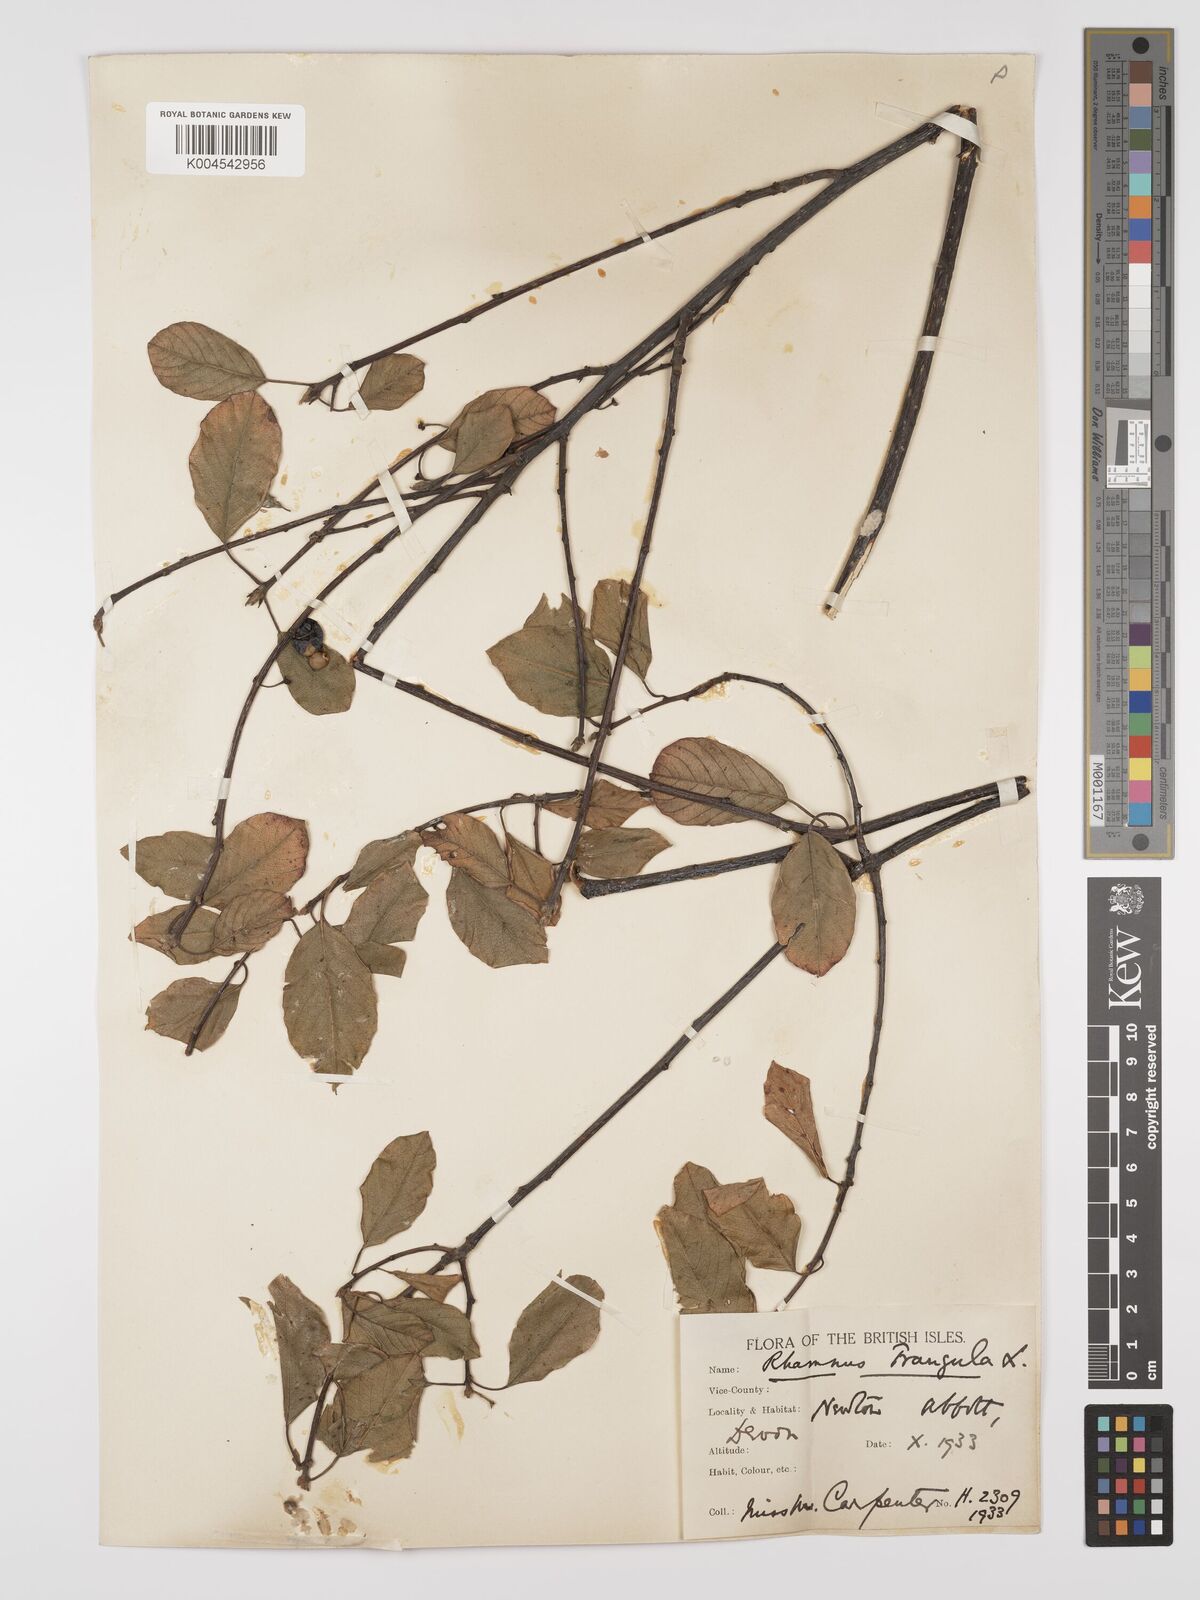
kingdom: Plantae
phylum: Tracheophyta
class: Magnoliopsida
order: Rosales
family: Rhamnaceae
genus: Frangula
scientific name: Frangula alnus
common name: Alder buckthorn
